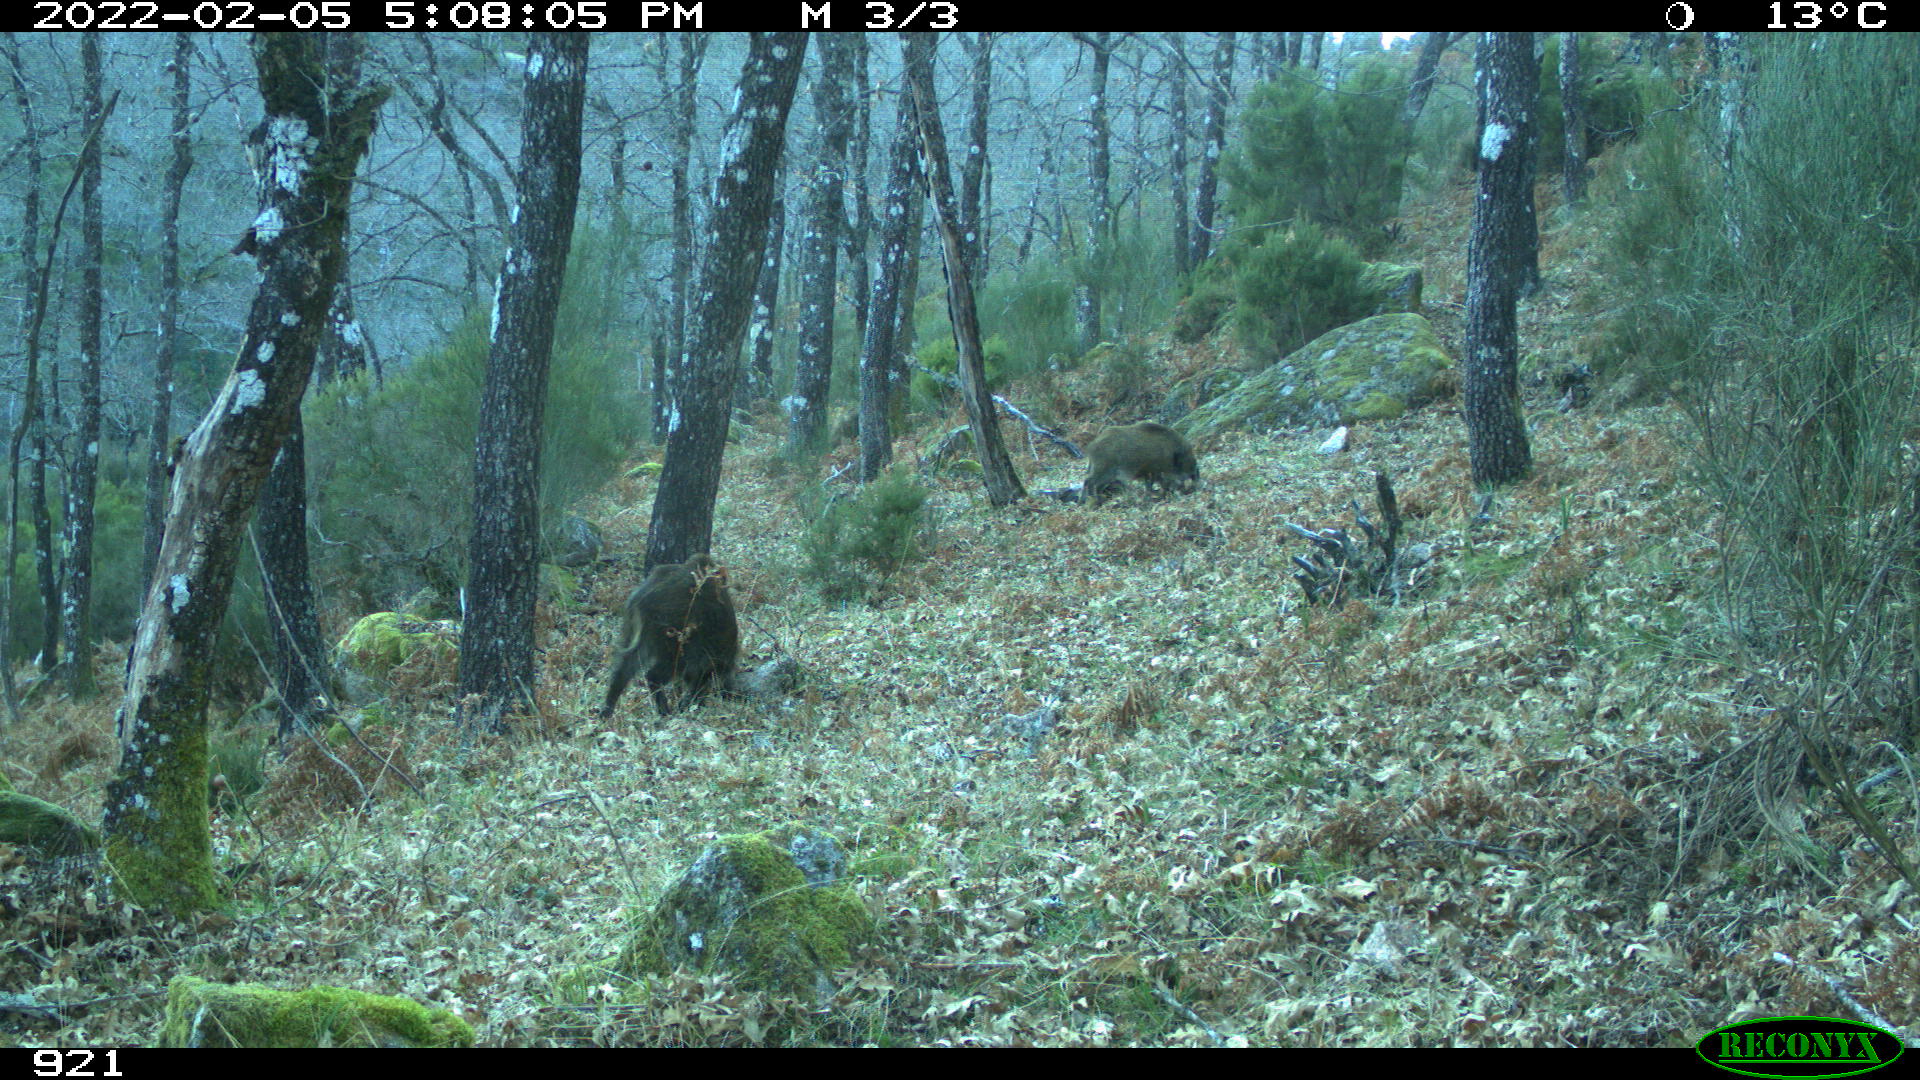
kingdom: Animalia
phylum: Chordata
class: Mammalia
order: Artiodactyla
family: Suidae
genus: Sus
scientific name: Sus scrofa
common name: Wild boar
